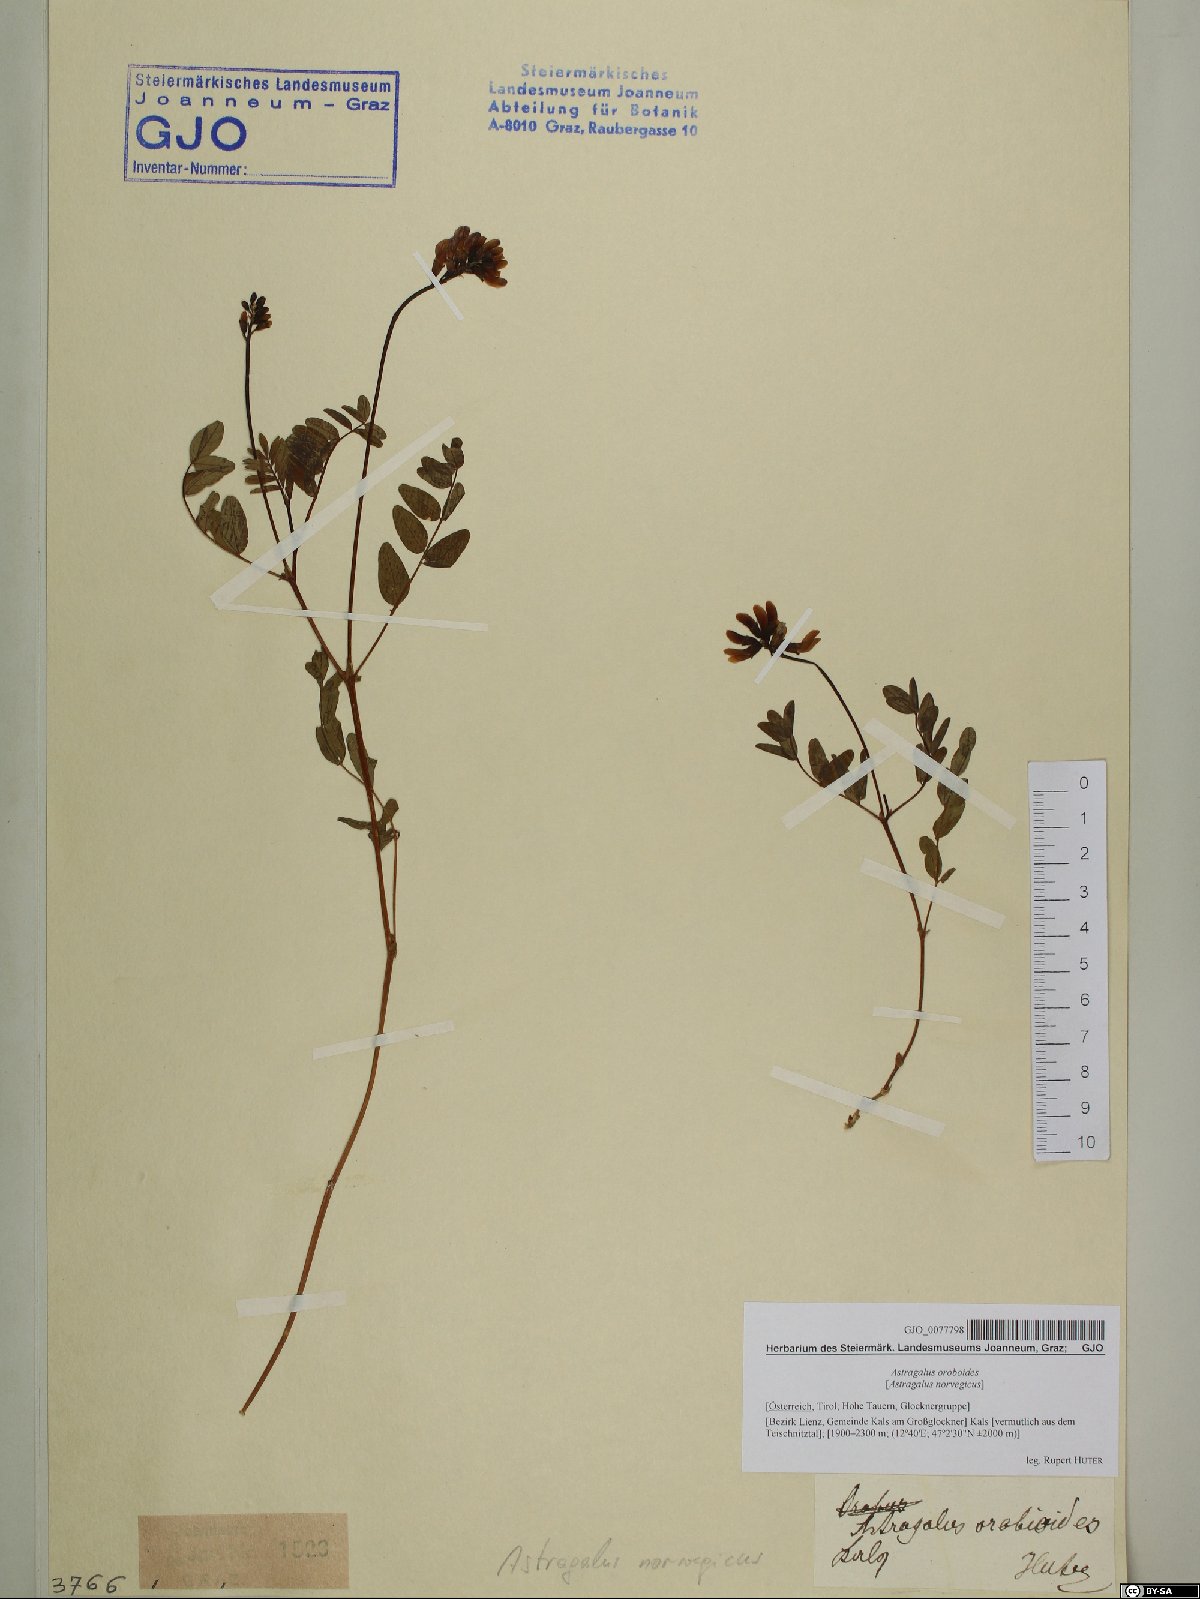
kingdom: Plantae
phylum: Tracheophyta
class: Magnoliopsida
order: Fabales
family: Fabaceae
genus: Astragalus
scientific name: Astragalus norvegicus
